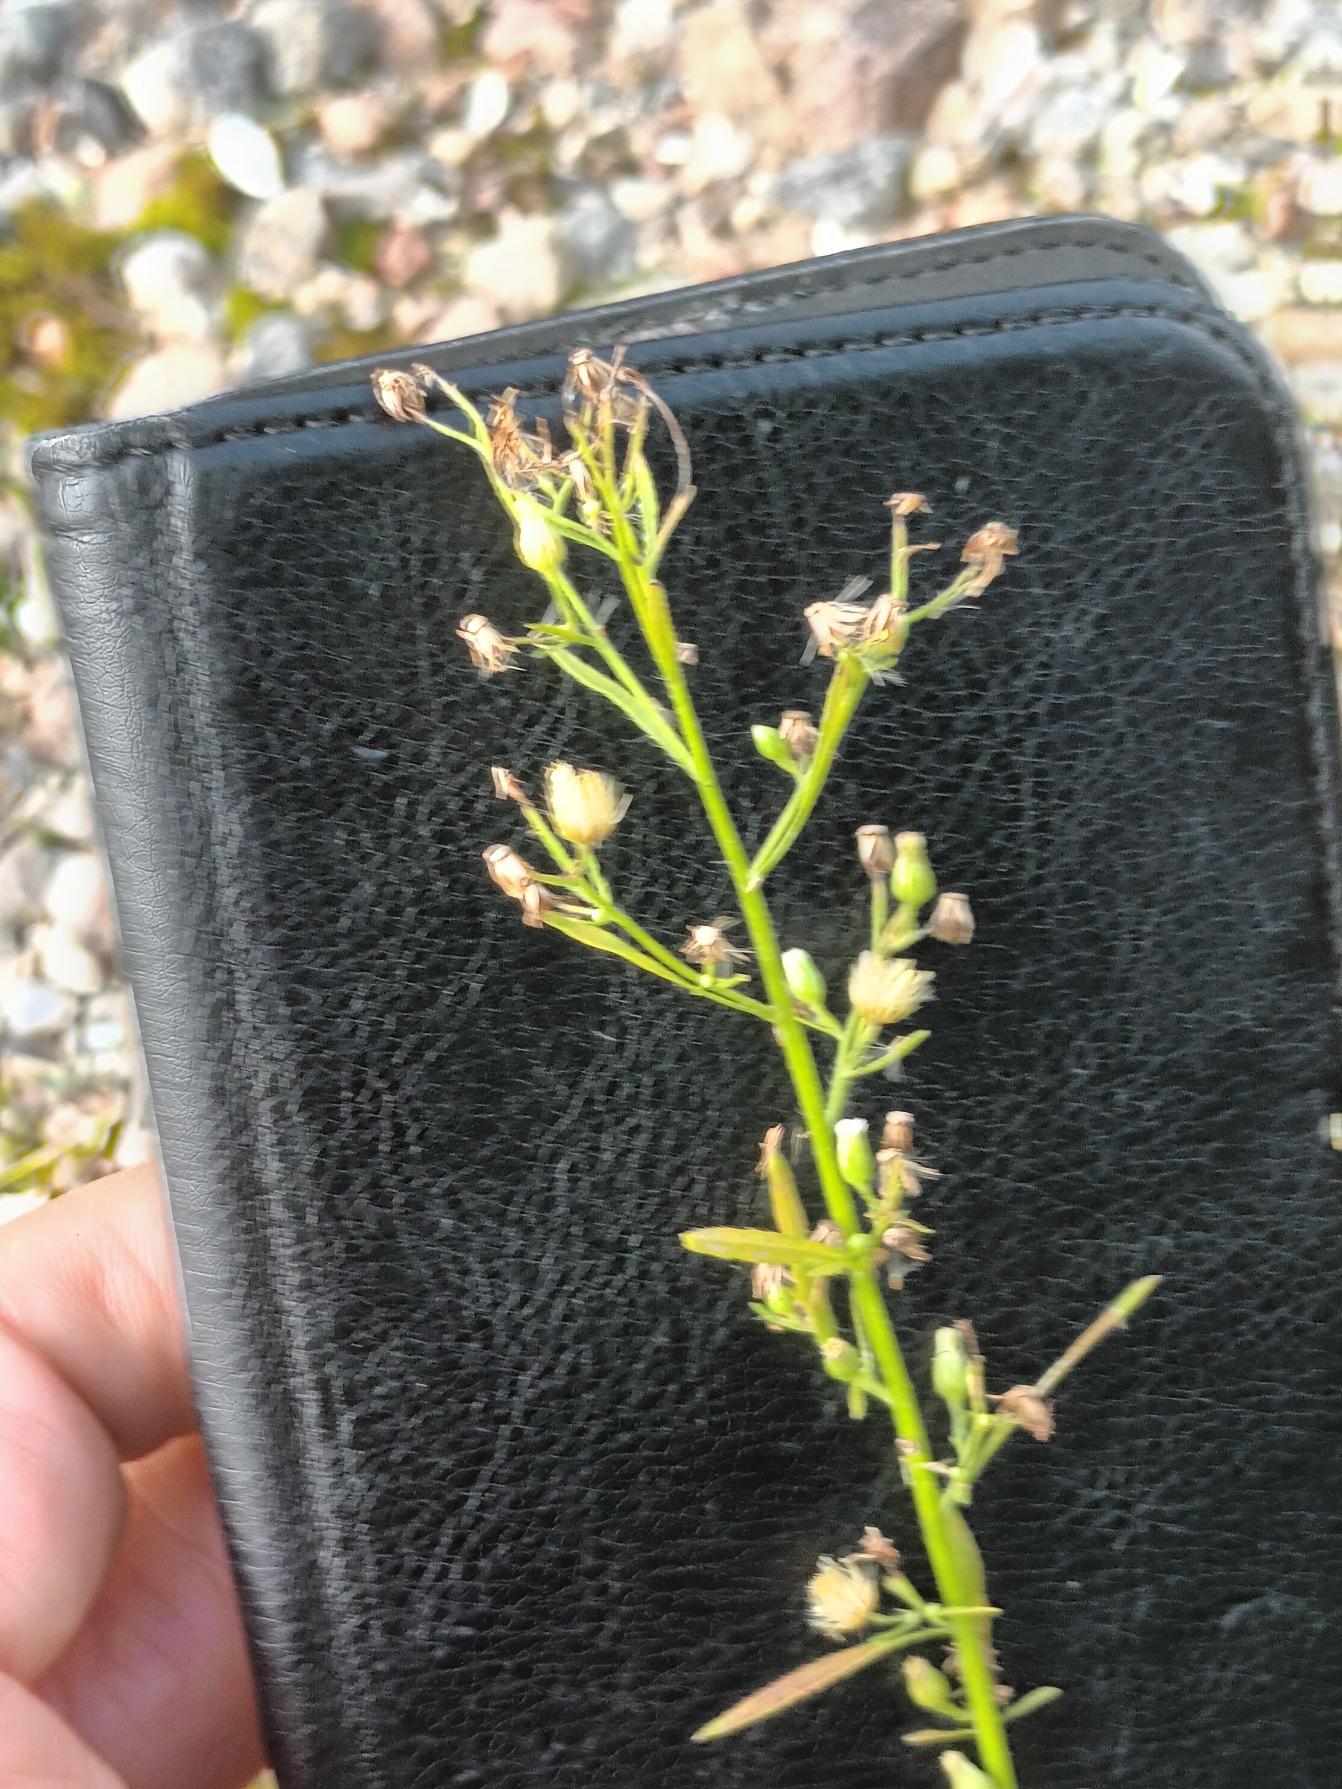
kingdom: Plantae
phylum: Tracheophyta
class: Magnoliopsida
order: Asterales
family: Asteraceae
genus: Erigeron
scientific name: Erigeron canadensis
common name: Kanadisk bakkestjerne
